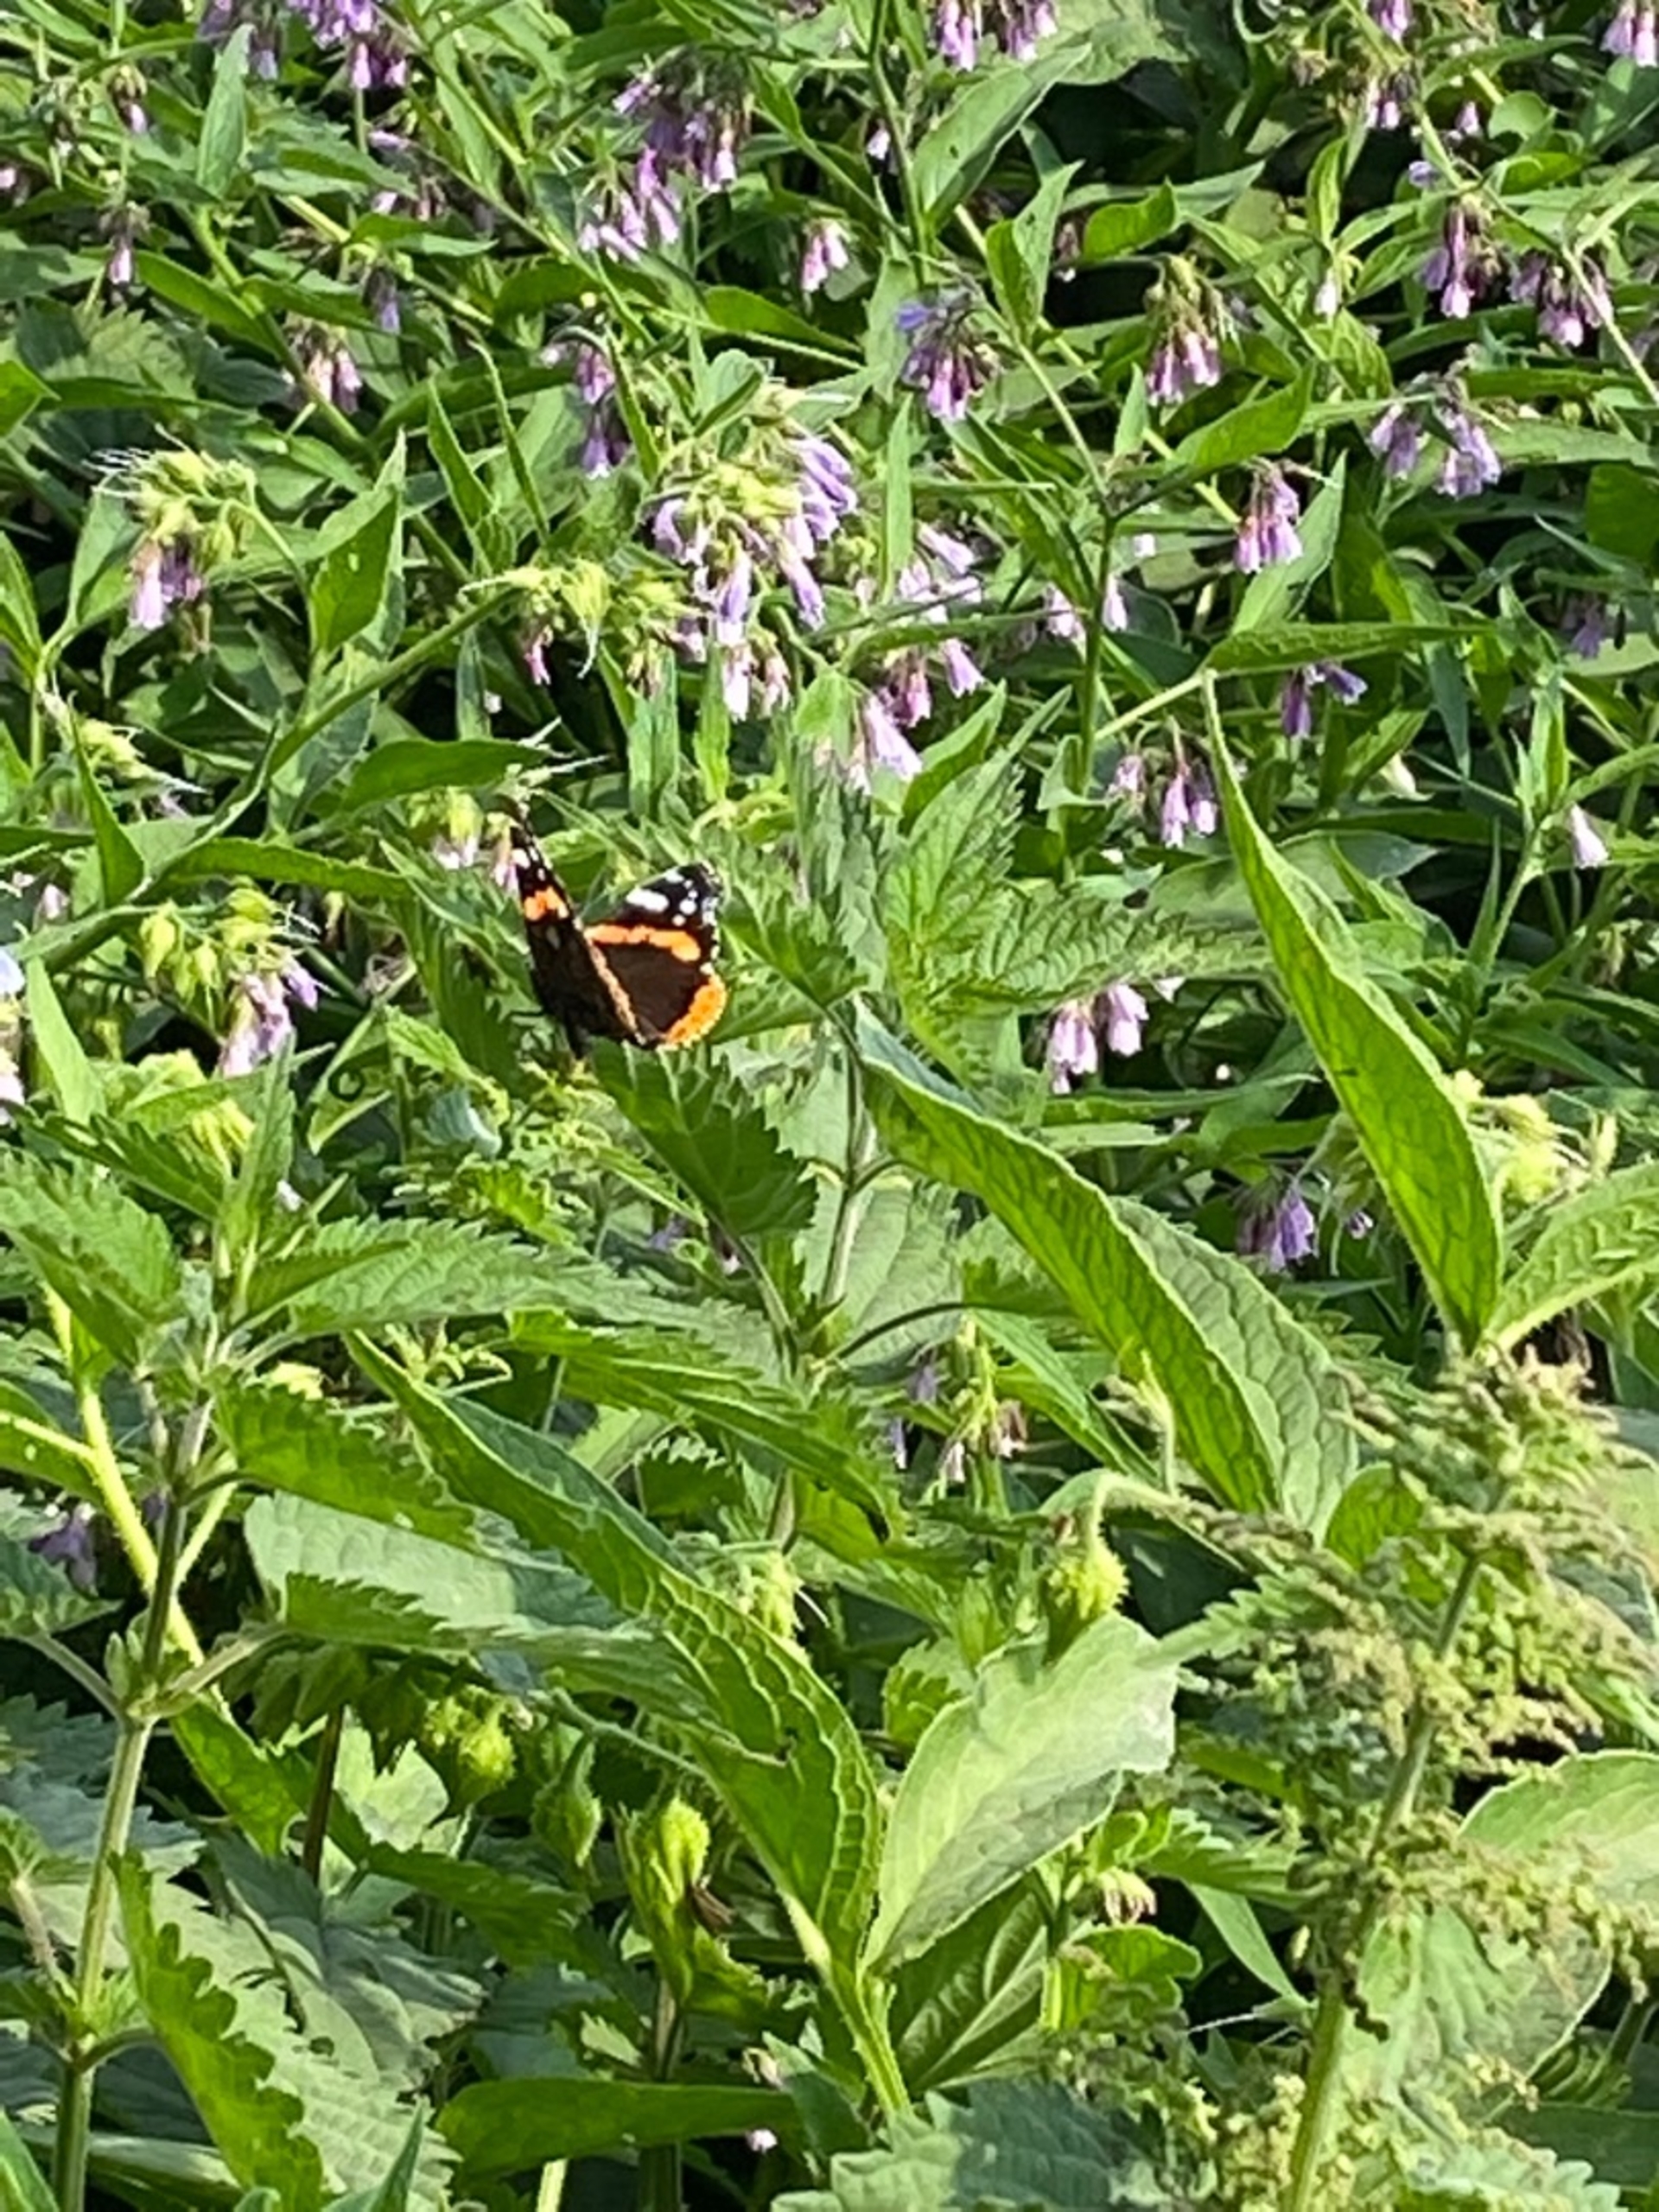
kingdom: Animalia
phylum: Arthropoda
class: Insecta
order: Lepidoptera
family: Nymphalidae
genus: Vanessa
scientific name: Vanessa atalanta
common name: Admiral
